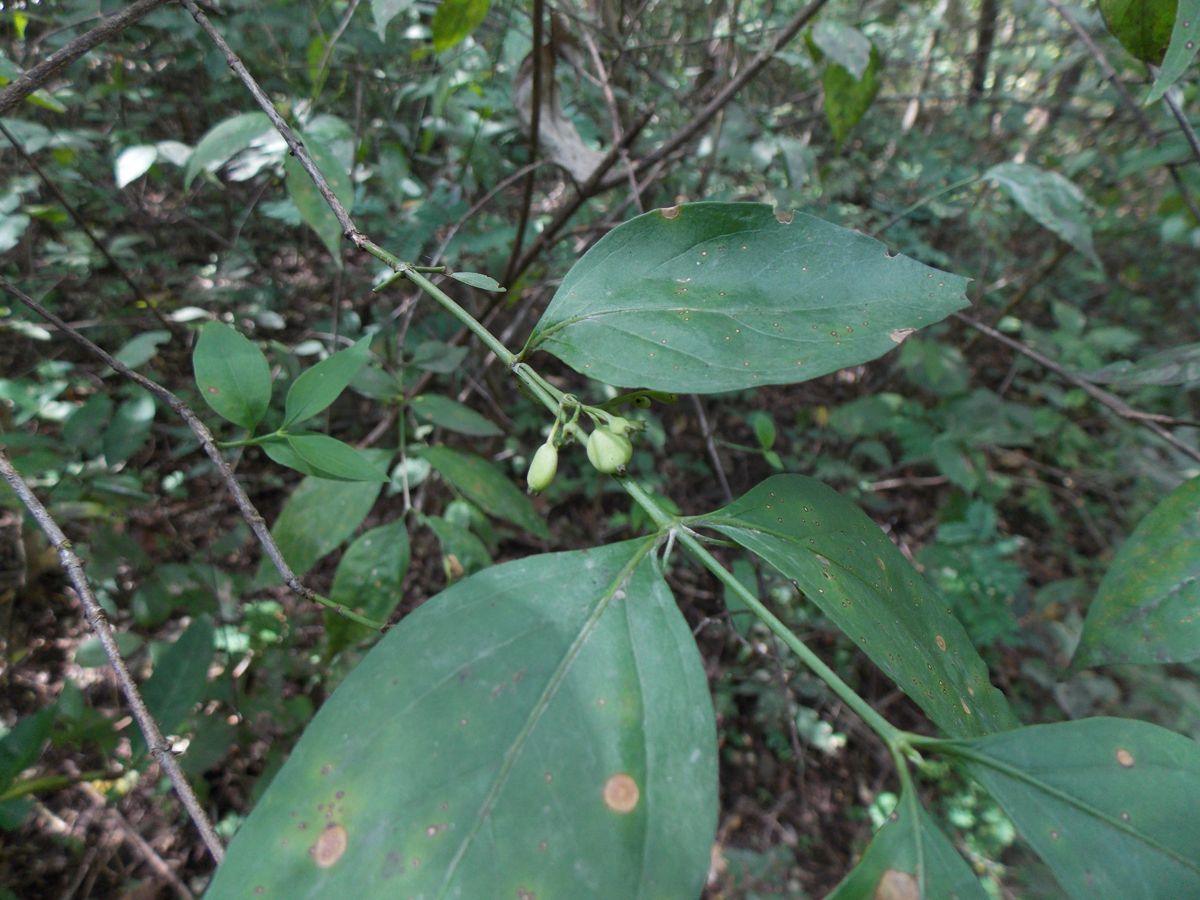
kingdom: Plantae
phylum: Tracheophyta
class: Magnoliopsida
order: Gentianales
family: Rubiaceae
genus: Chiococca
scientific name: Chiococca alba
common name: Snowberry
